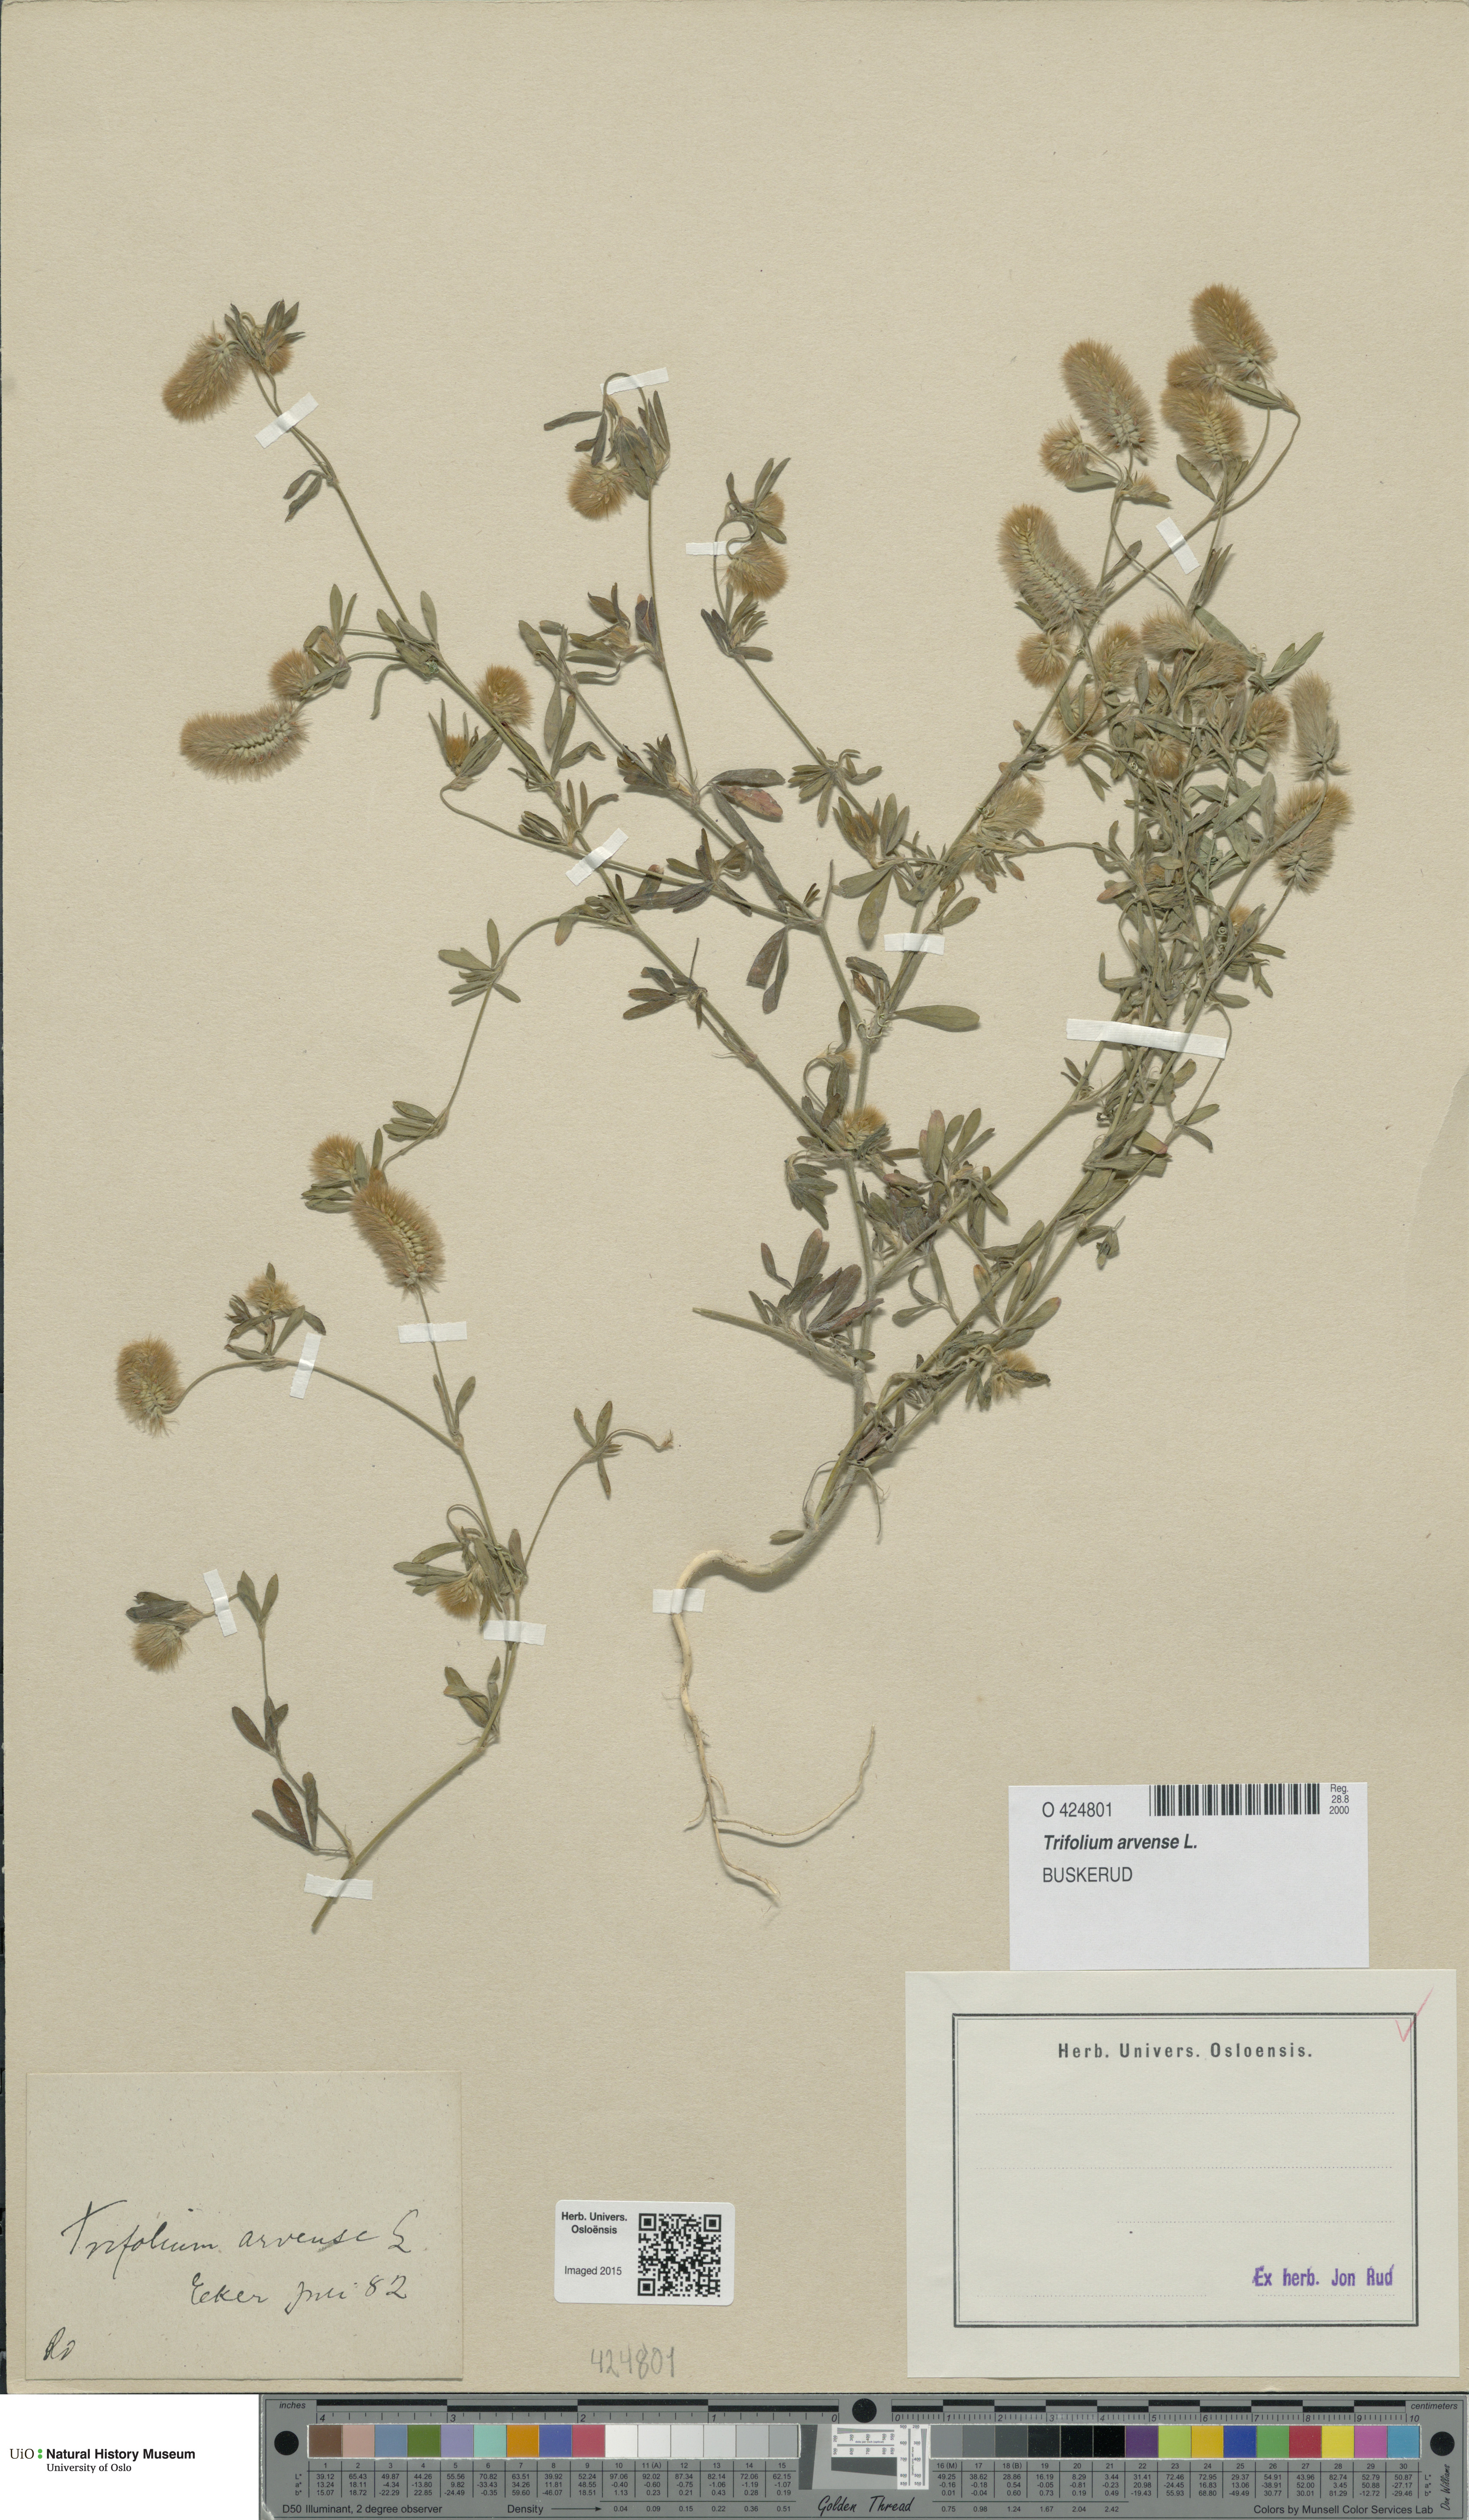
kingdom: Plantae
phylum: Tracheophyta
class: Magnoliopsida
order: Fabales
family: Fabaceae
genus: Trifolium
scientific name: Trifolium arvense
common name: Hare's-foot clover
